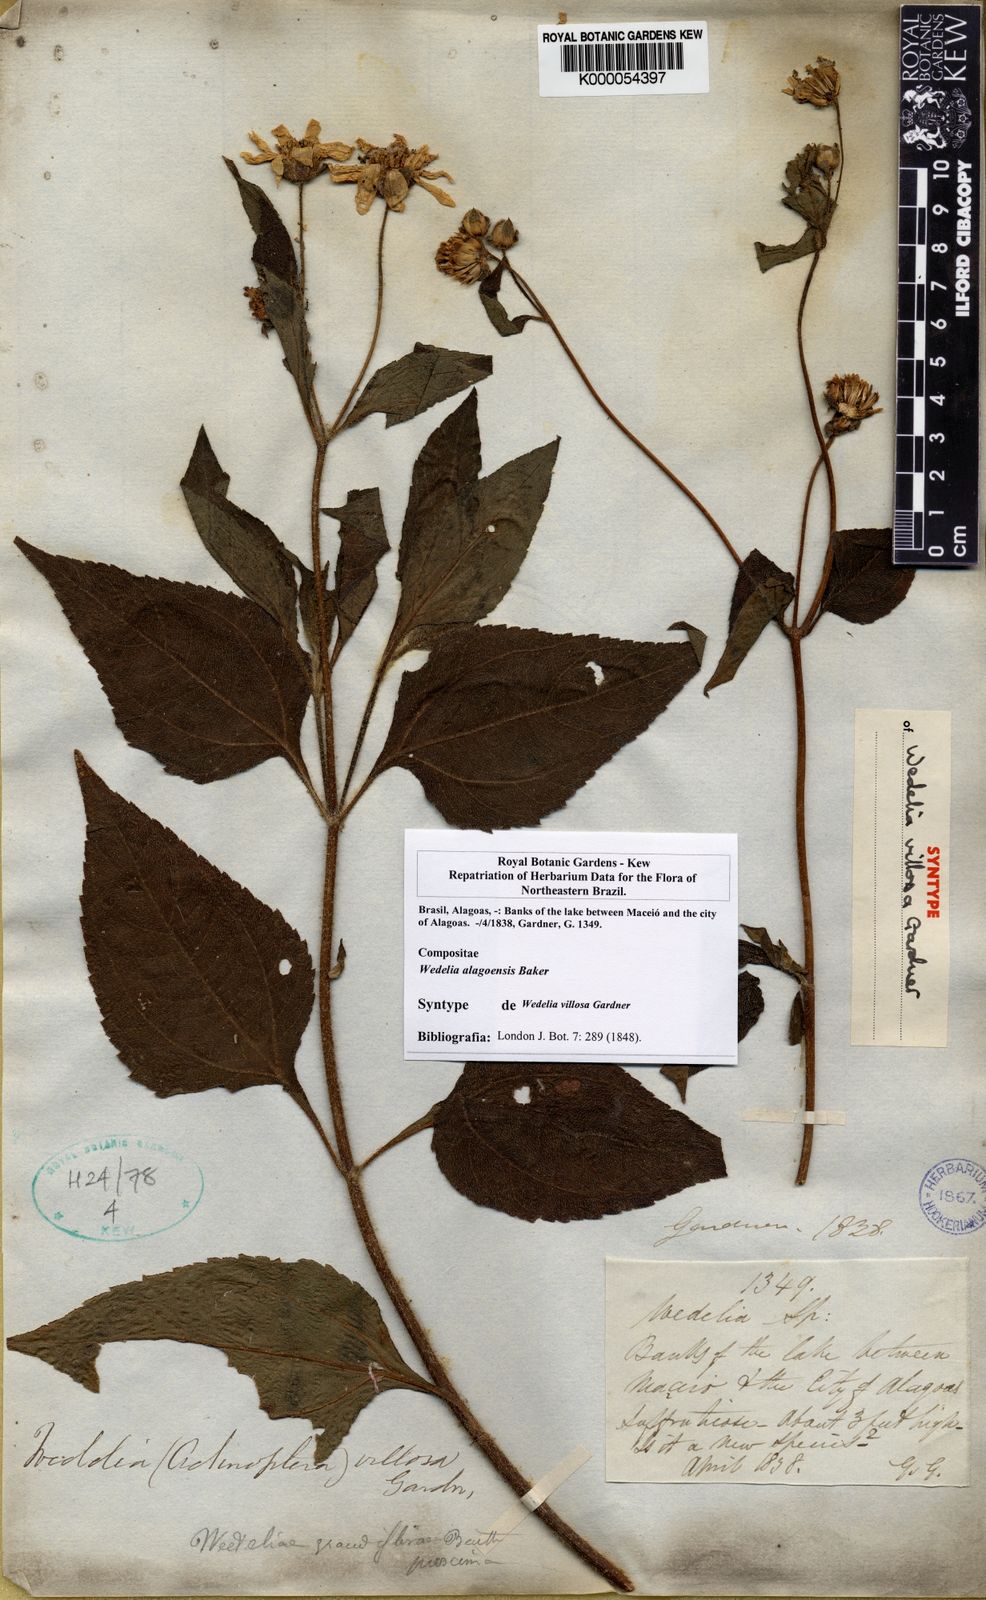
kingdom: Plantae
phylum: Tracheophyta
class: Magnoliopsida
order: Asterales
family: Asteraceae
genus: Wedelia
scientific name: Wedelia alagoensis
